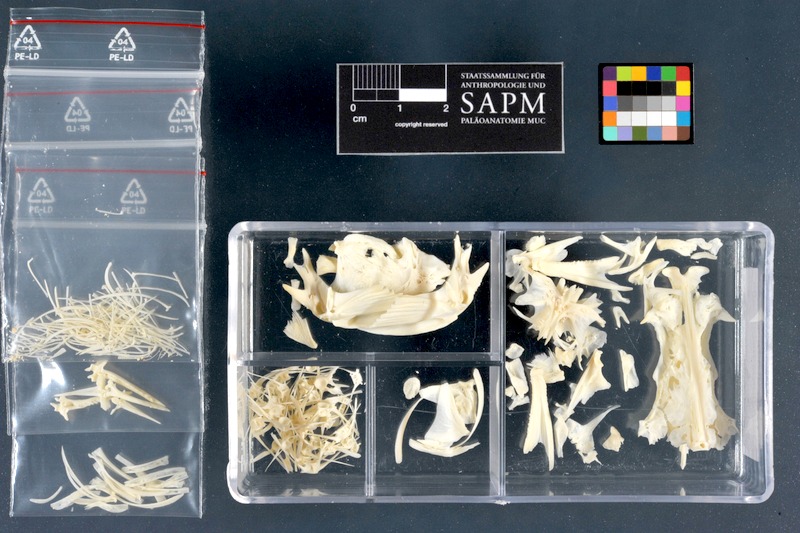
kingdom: Animalia
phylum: Chordata
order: Siluriformes
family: Ictaluridae
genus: Ameiurus
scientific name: Ameiurus nebulosus
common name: Brown bullhead
